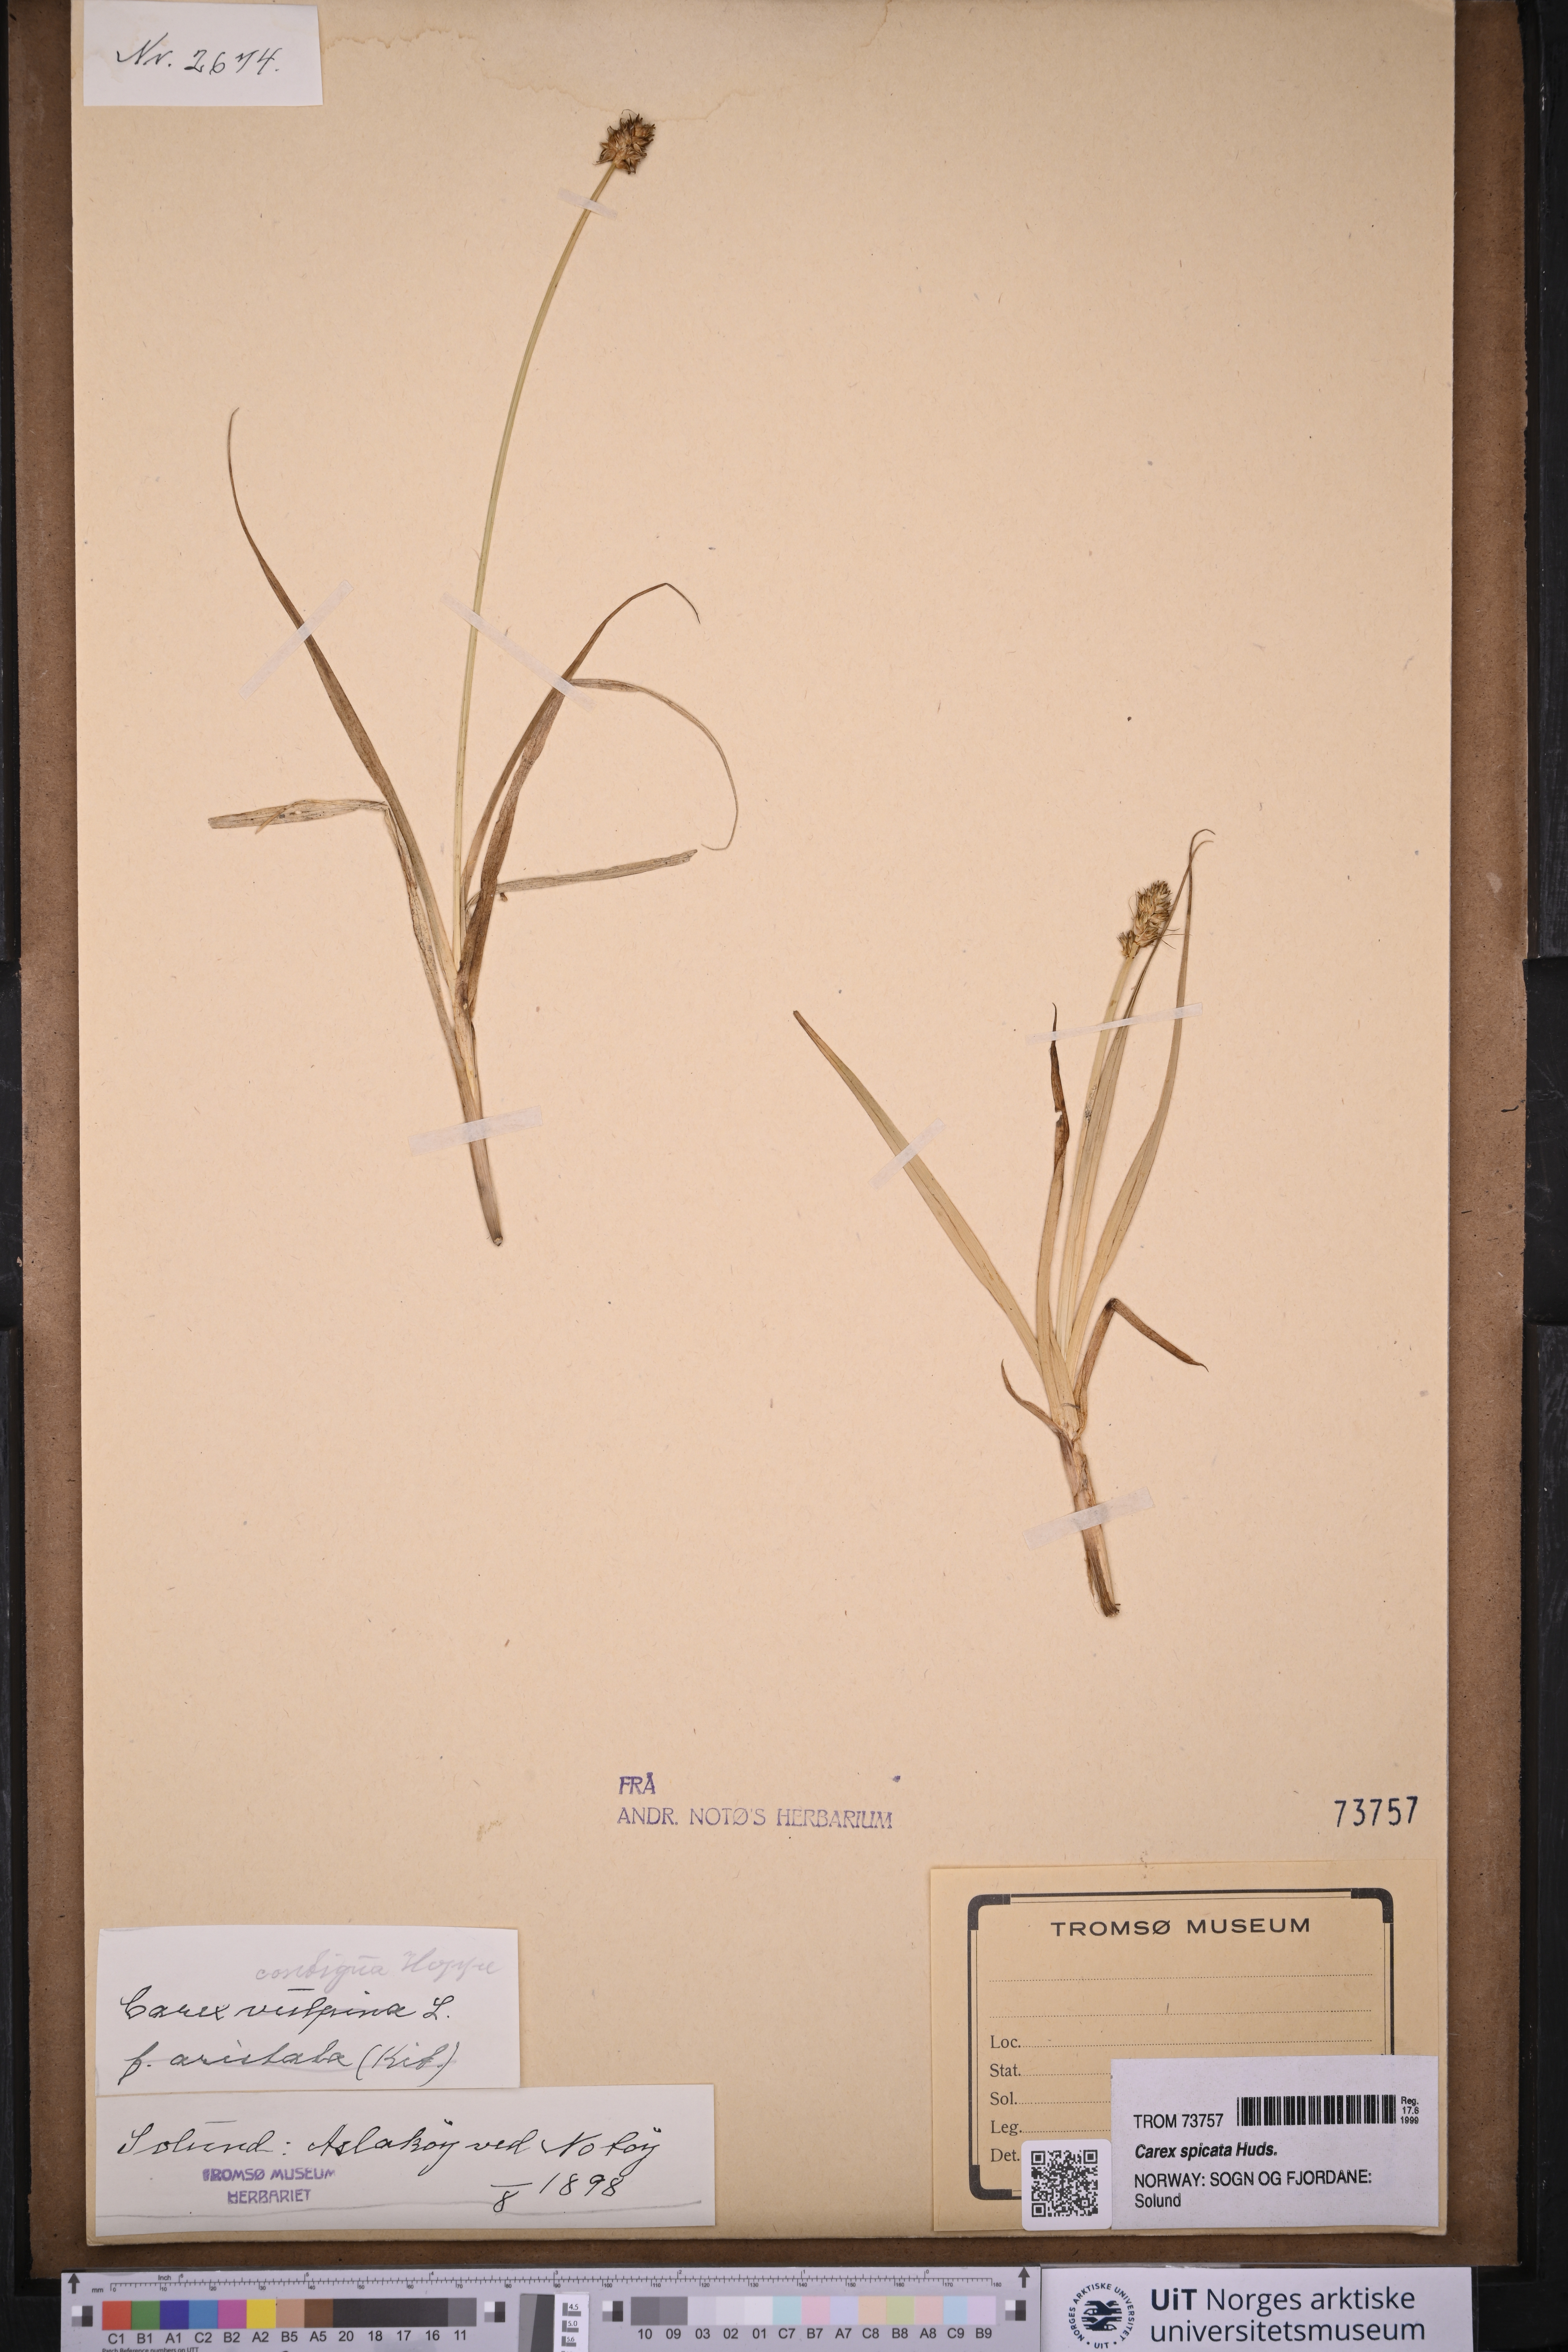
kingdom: Plantae
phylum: Tracheophyta
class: Liliopsida
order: Poales
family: Cyperaceae
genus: Carex
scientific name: Carex spicata
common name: Spiked sedge
